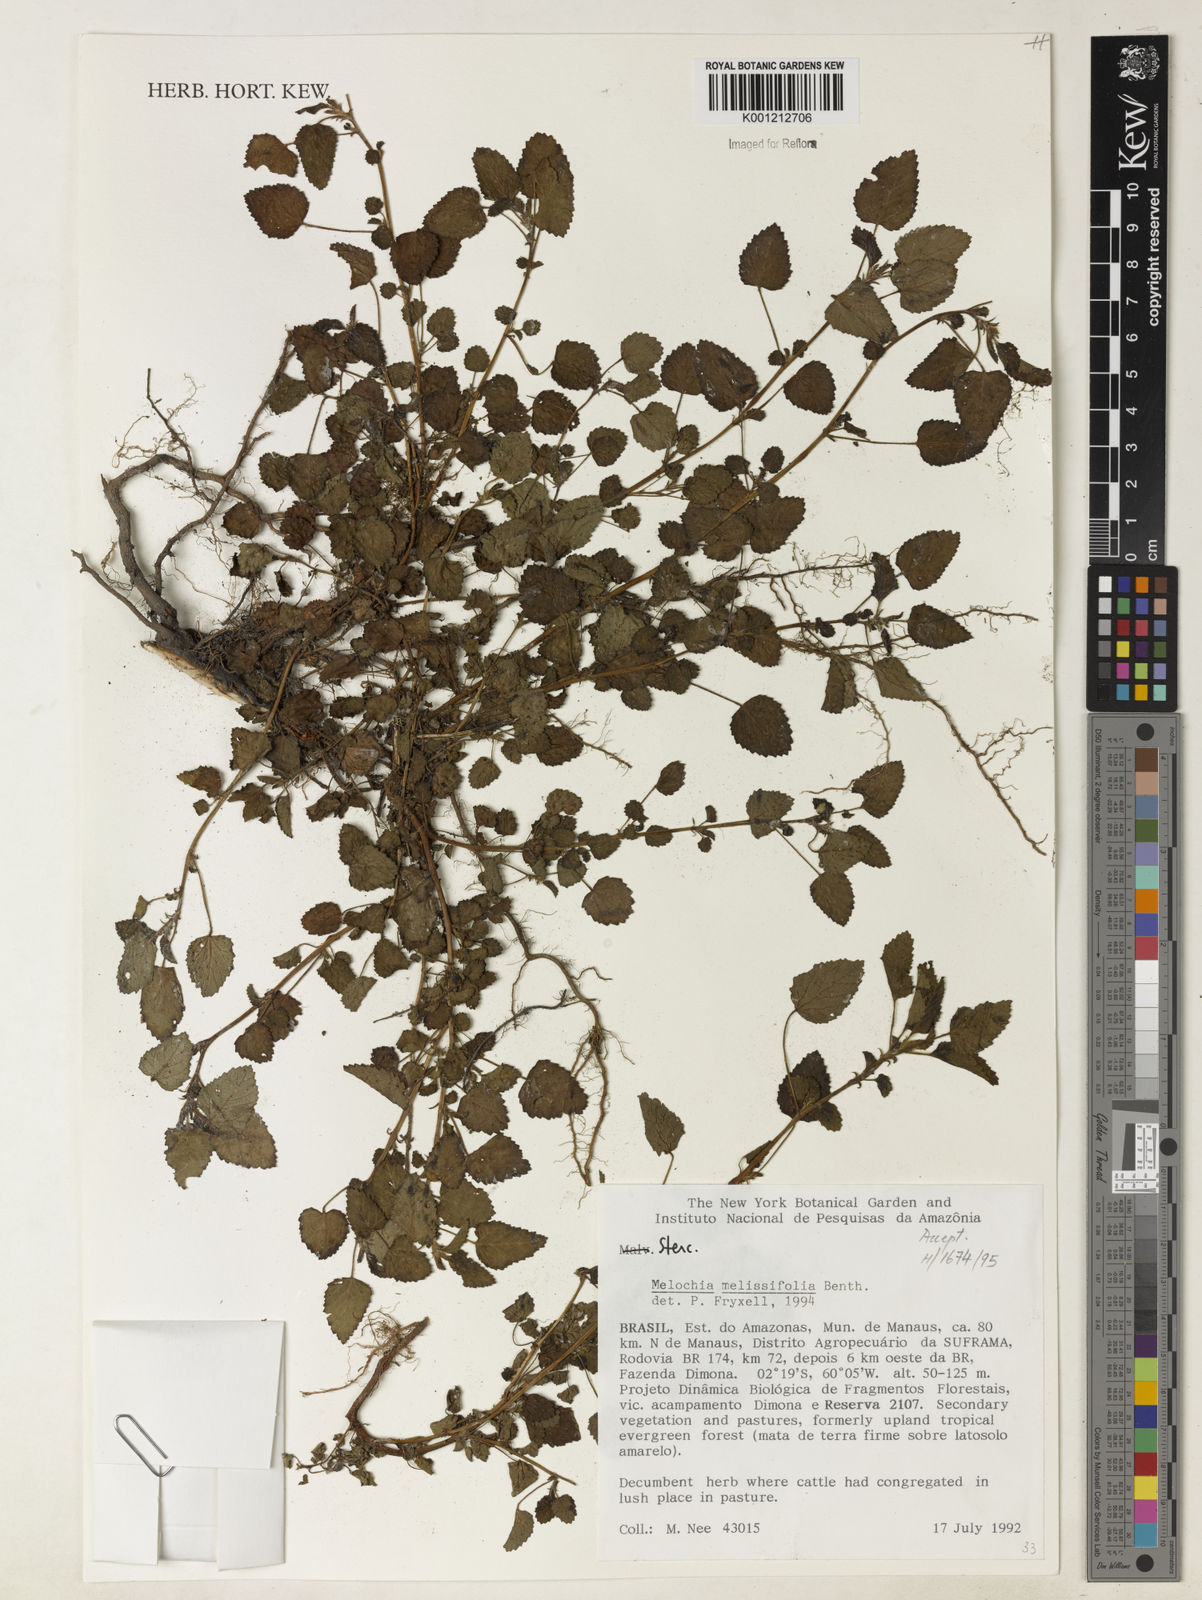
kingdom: Plantae
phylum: Tracheophyta
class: Magnoliopsida
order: Malvales
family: Malvaceae
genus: Melochia
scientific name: Melochia melissifolia
